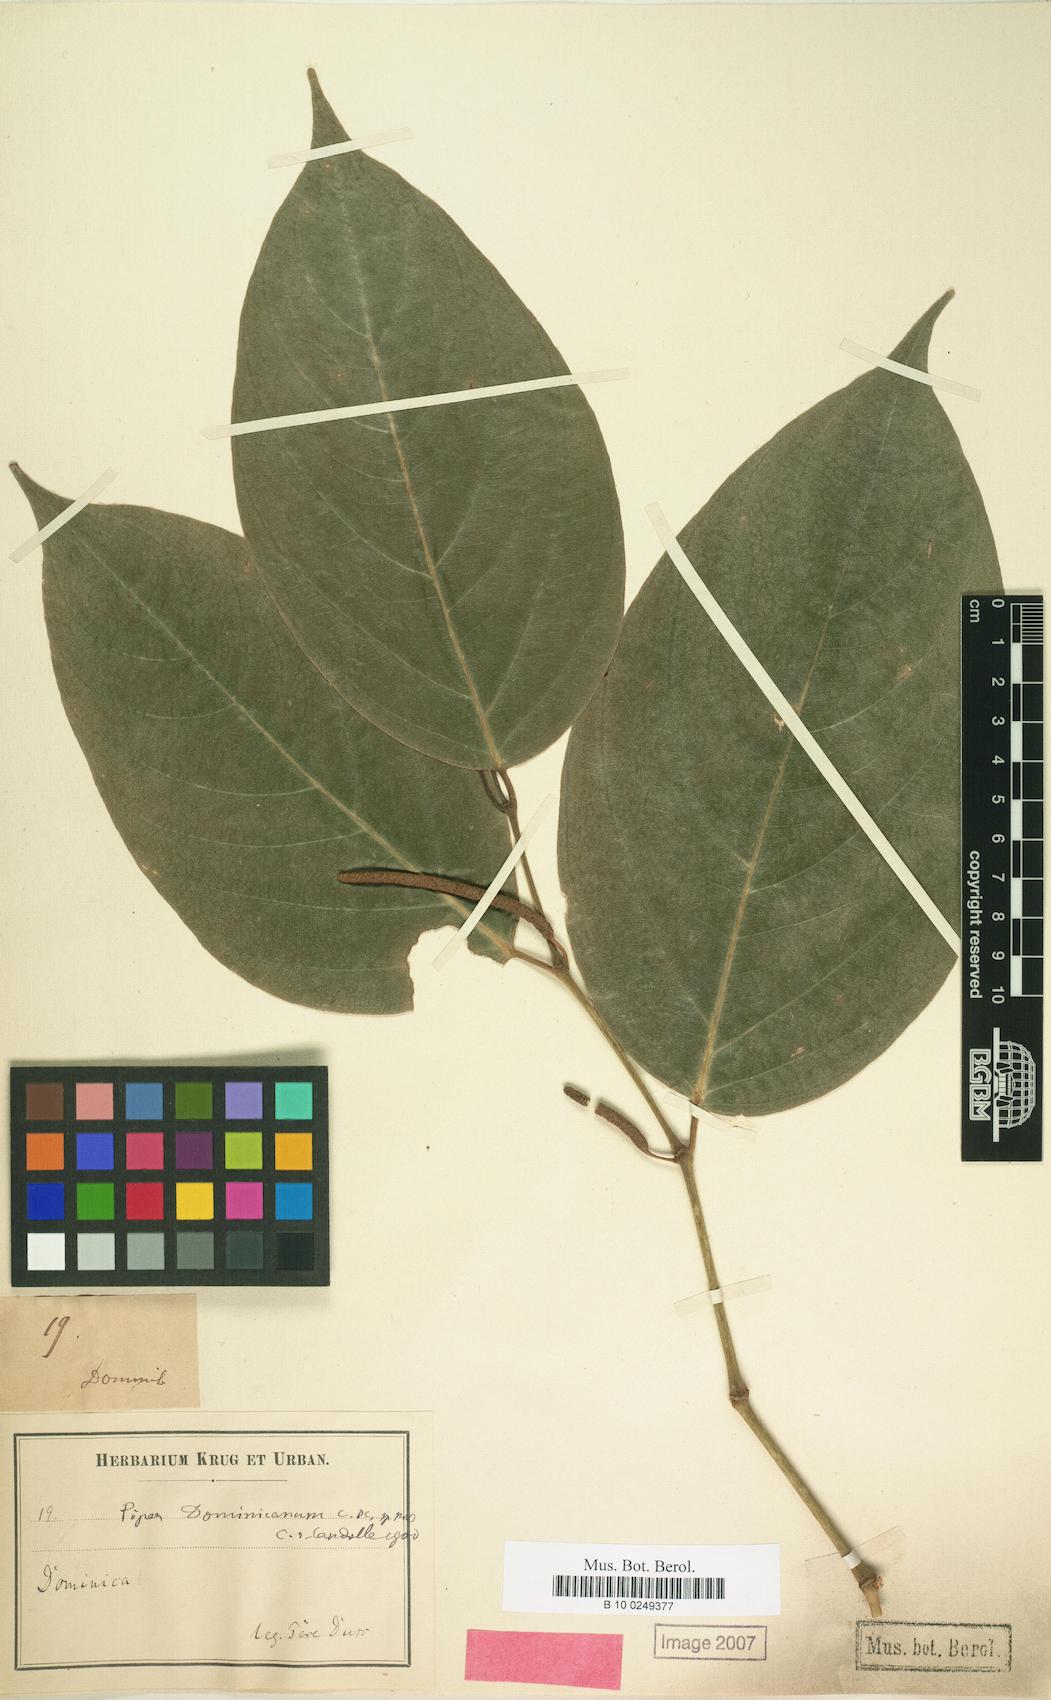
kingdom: Plantae
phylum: Tracheophyta
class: Magnoliopsida
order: Piperales
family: Piperaceae
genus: Piper
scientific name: Piper aequale
